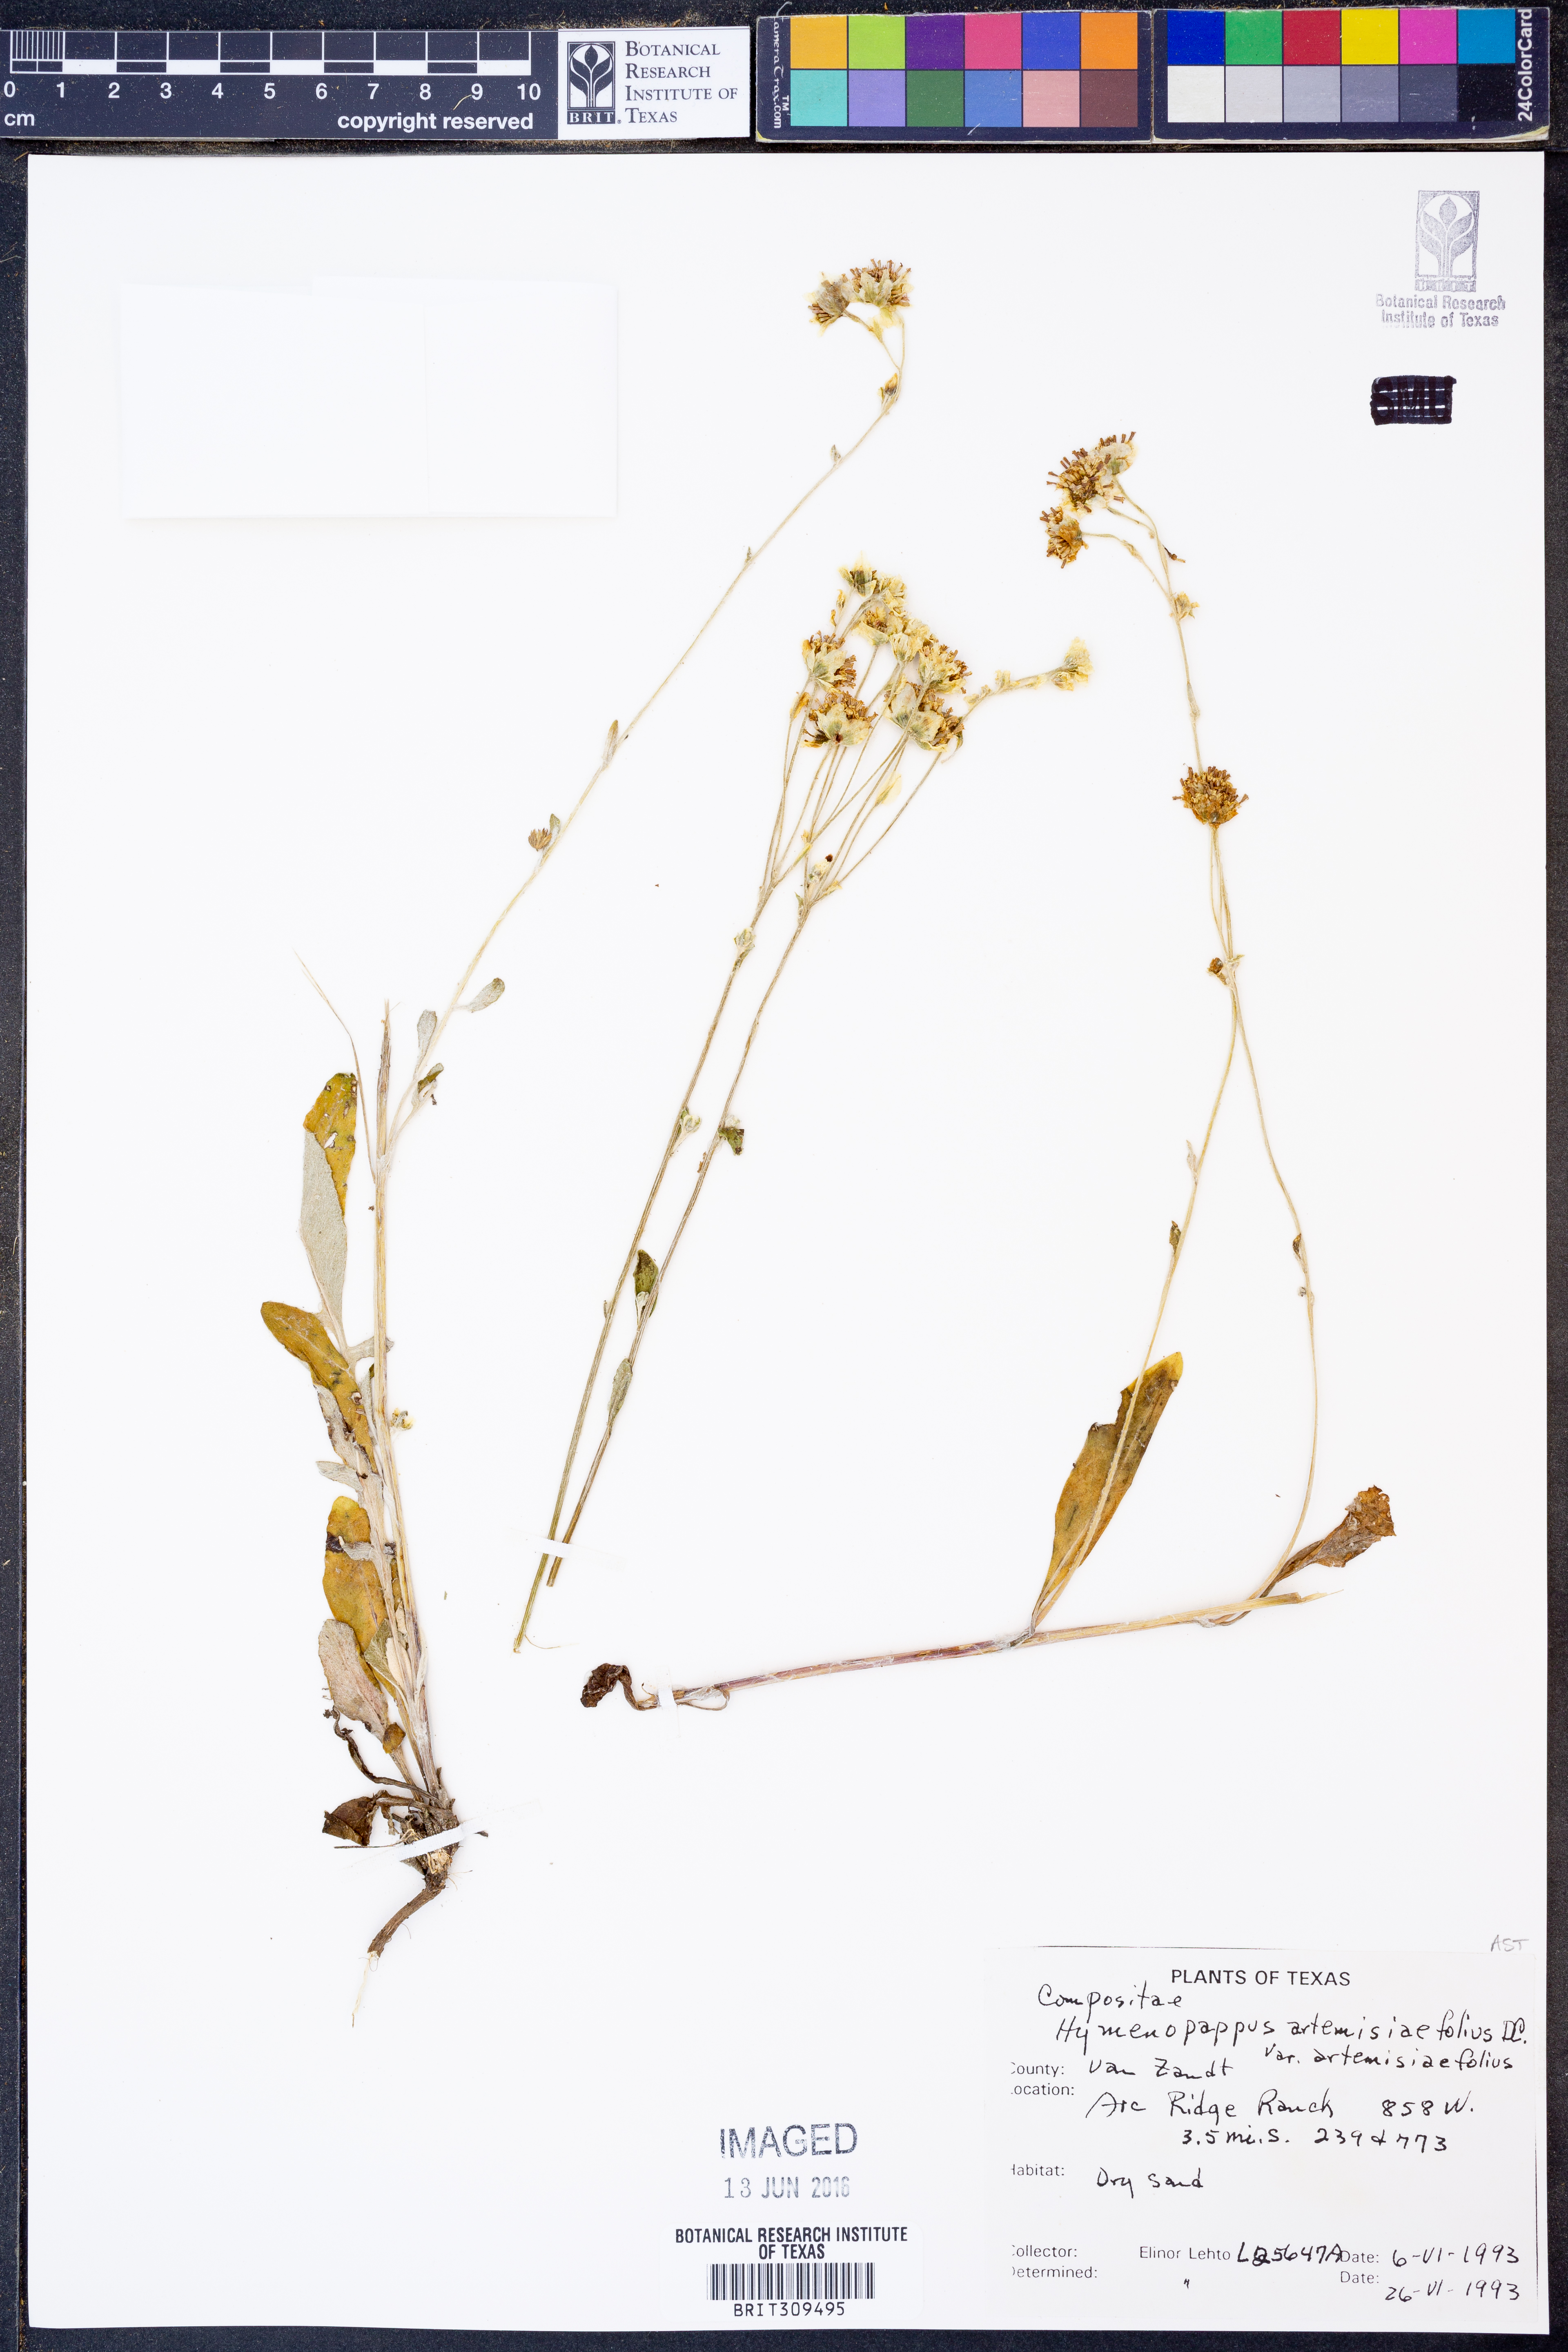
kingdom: Plantae
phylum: Tracheophyta
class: Magnoliopsida
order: Asterales
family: Asteraceae
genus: Hymenopappus
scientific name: Hymenopappus artemisiifolius
